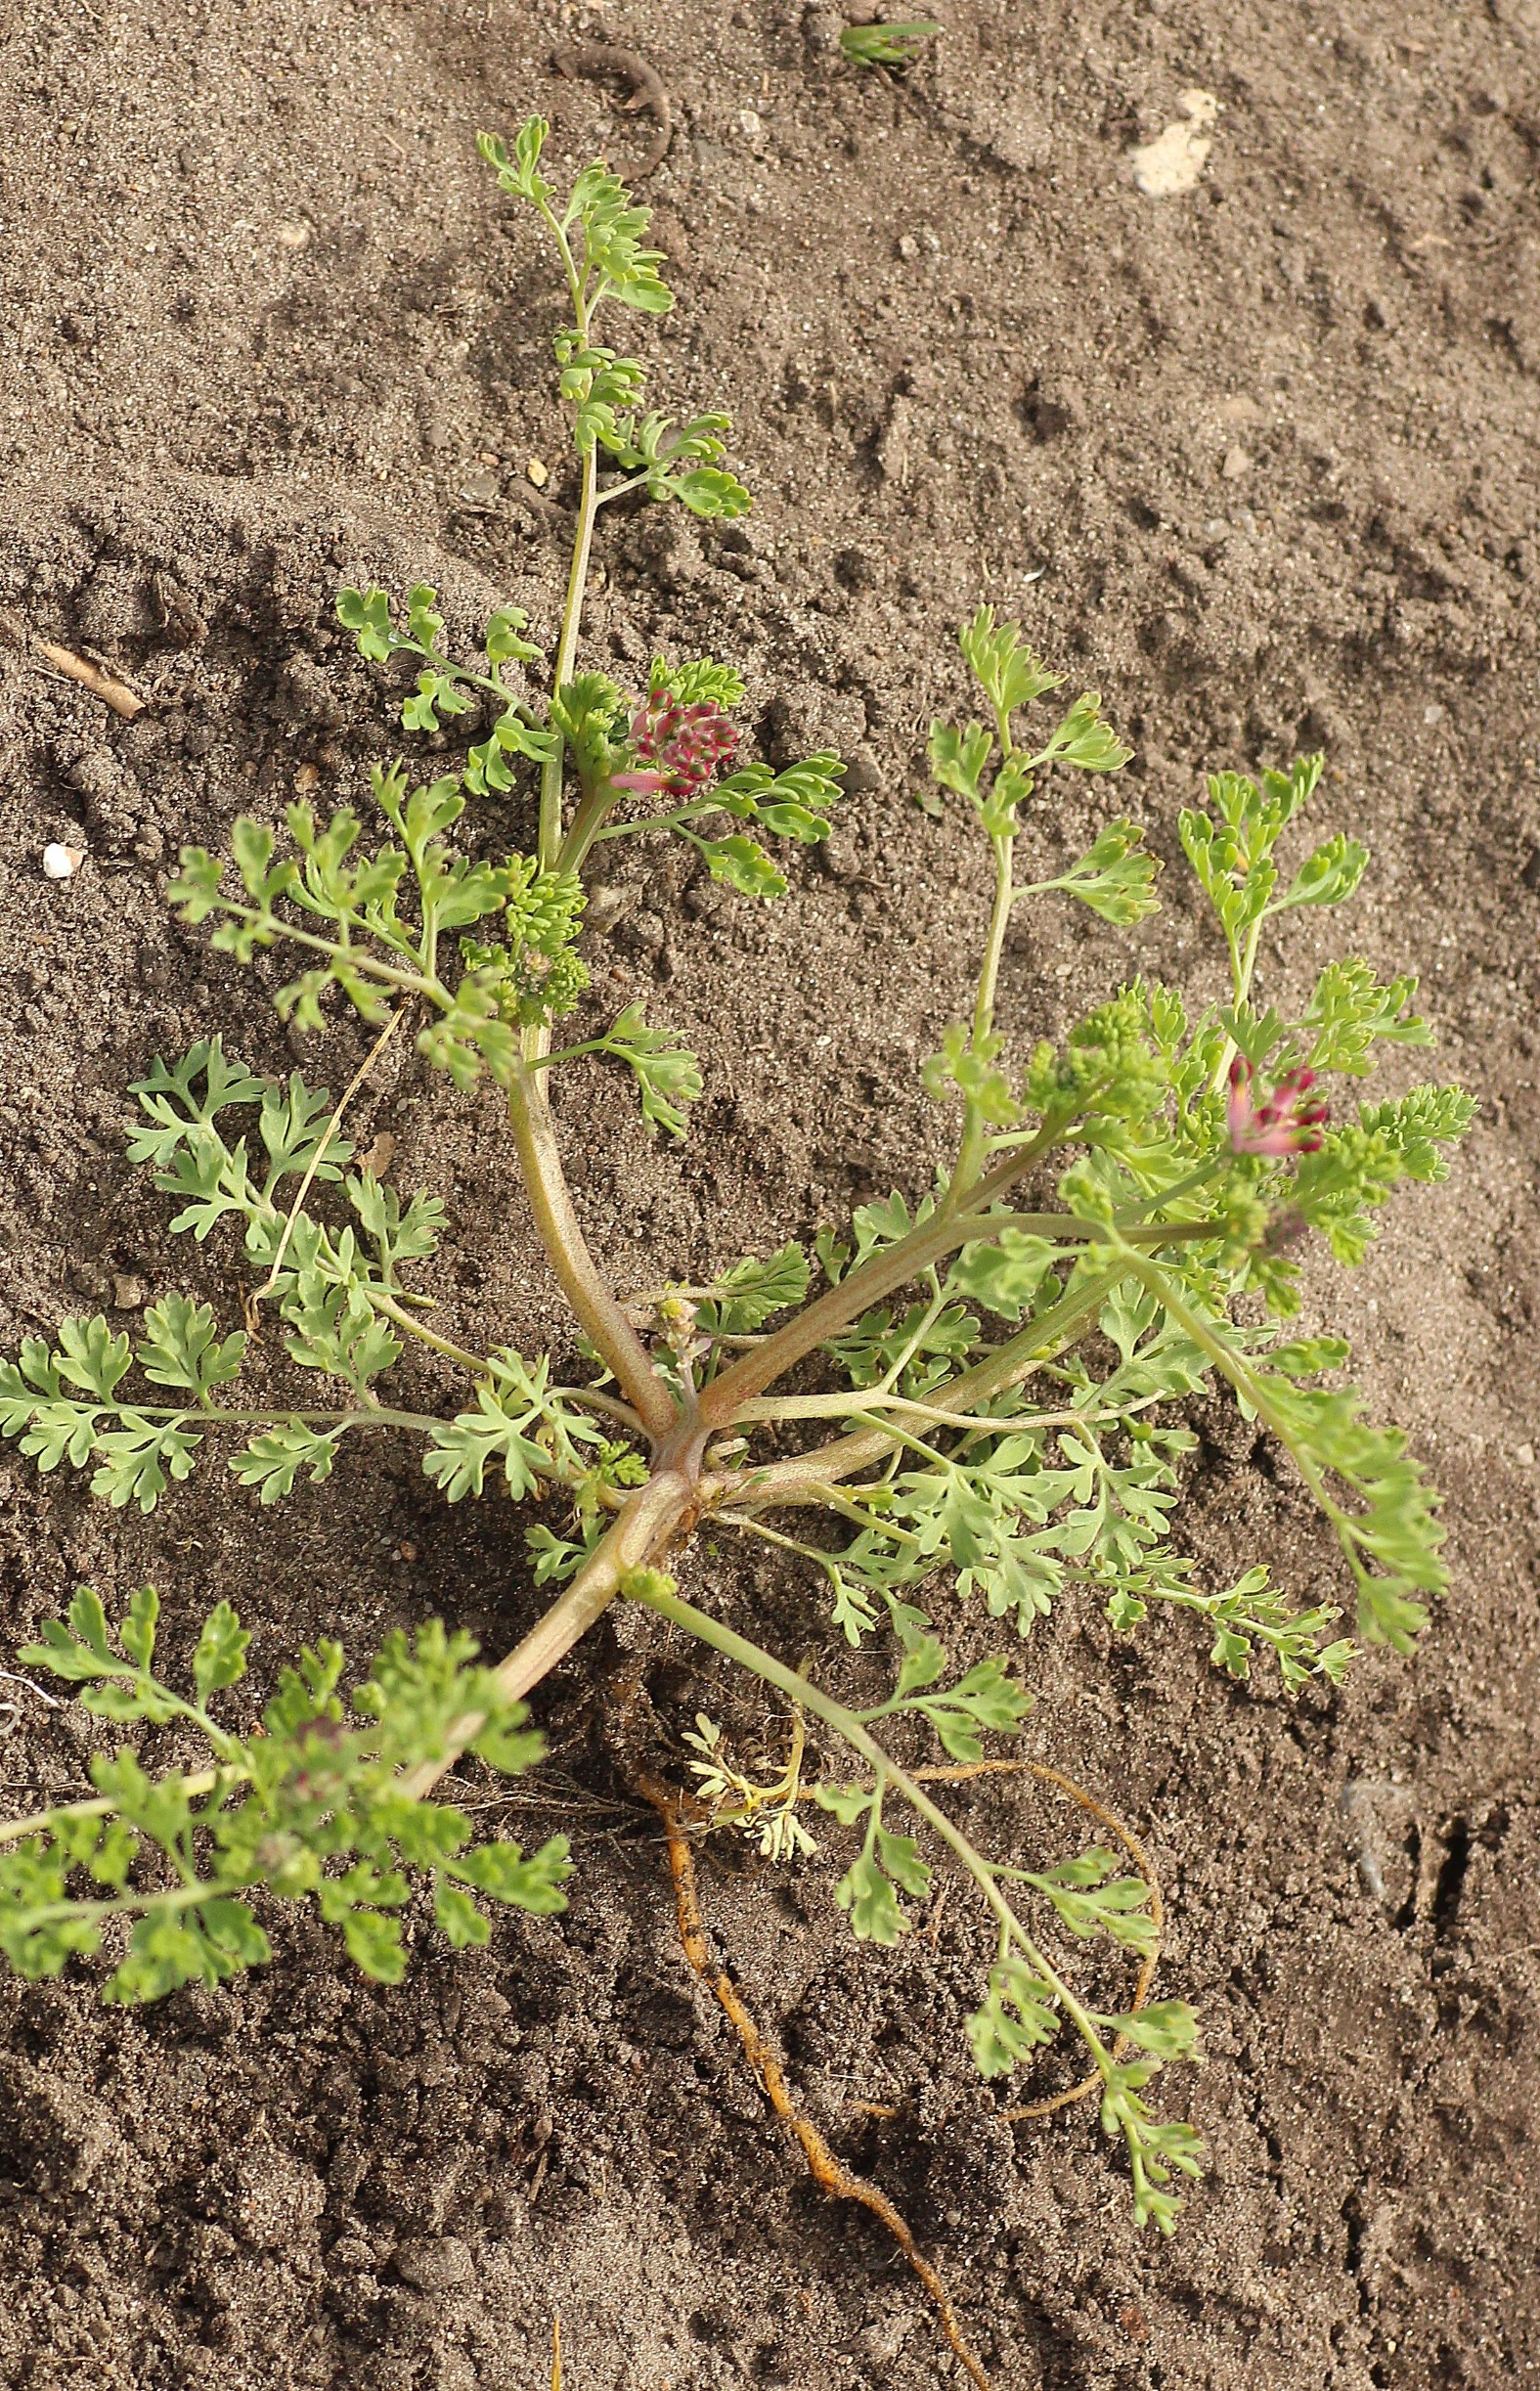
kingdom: Plantae
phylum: Tracheophyta
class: Magnoliopsida
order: Ranunculales
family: Papaveraceae
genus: Fumaria
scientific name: Fumaria officinalis
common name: Læge-jordrøg
